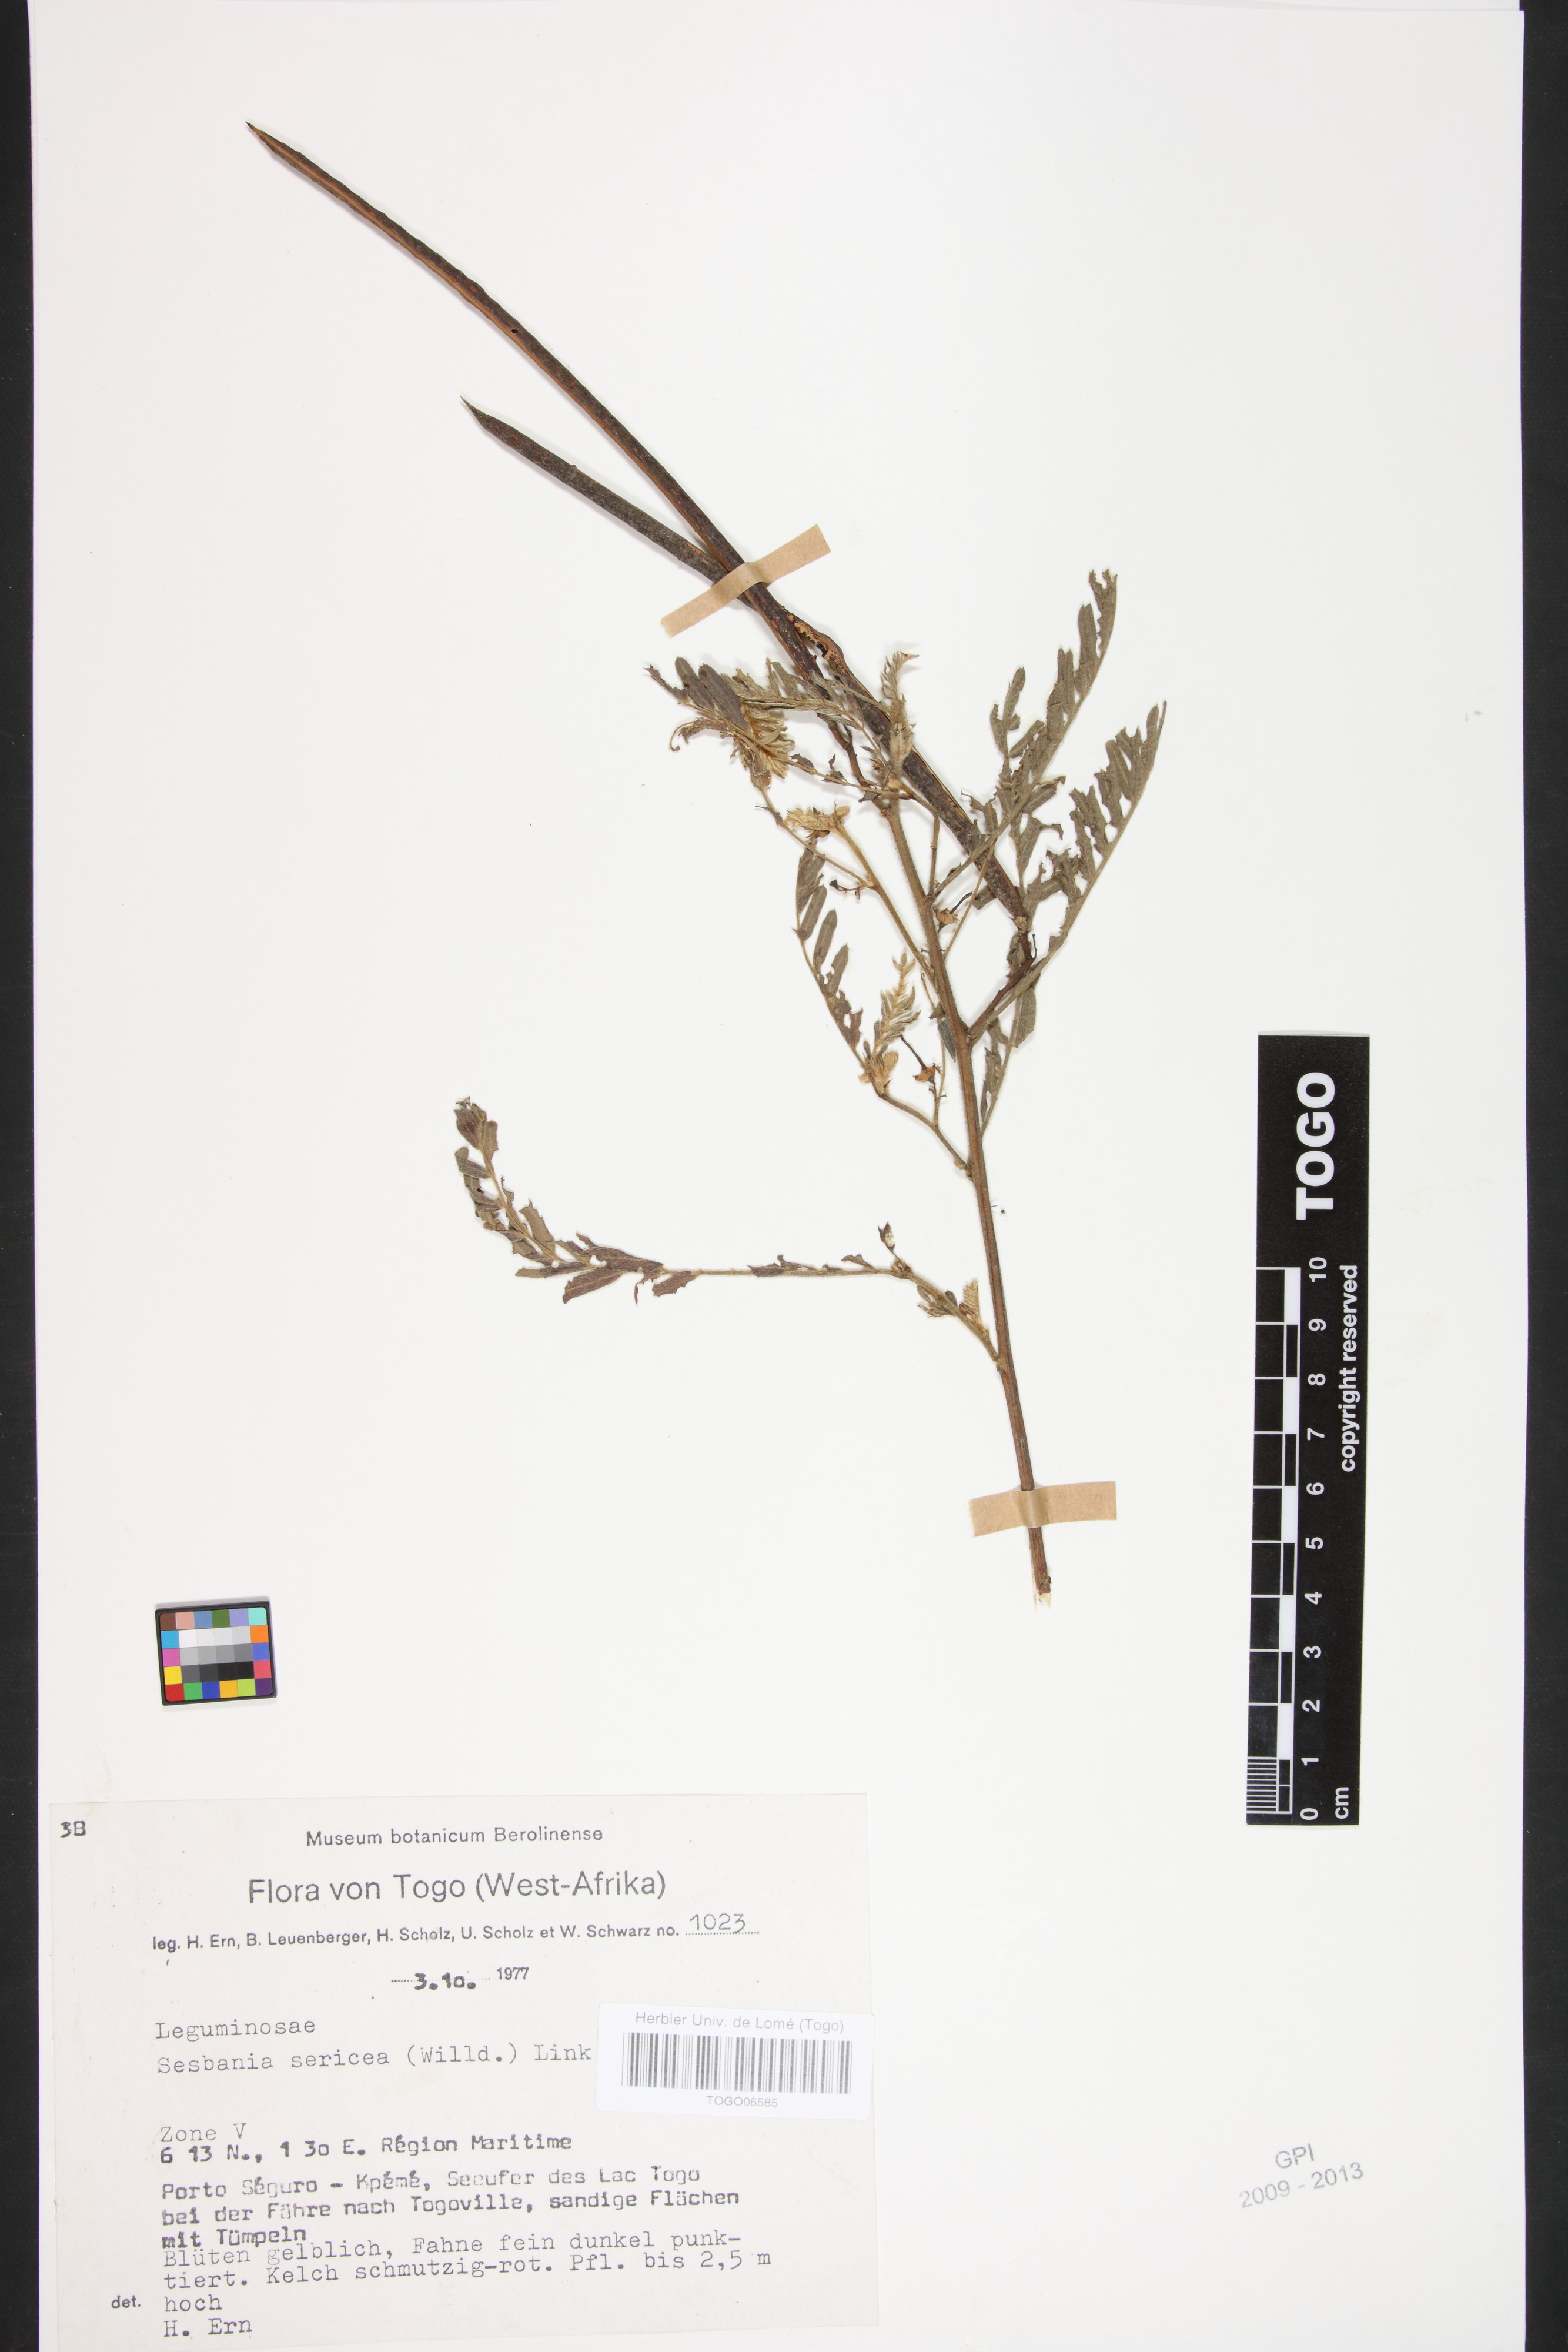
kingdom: Plantae
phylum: Tracheophyta
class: Magnoliopsida
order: Fabales
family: Fabaceae
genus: Sesbania
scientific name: Sesbania sericea
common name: Papagayo
